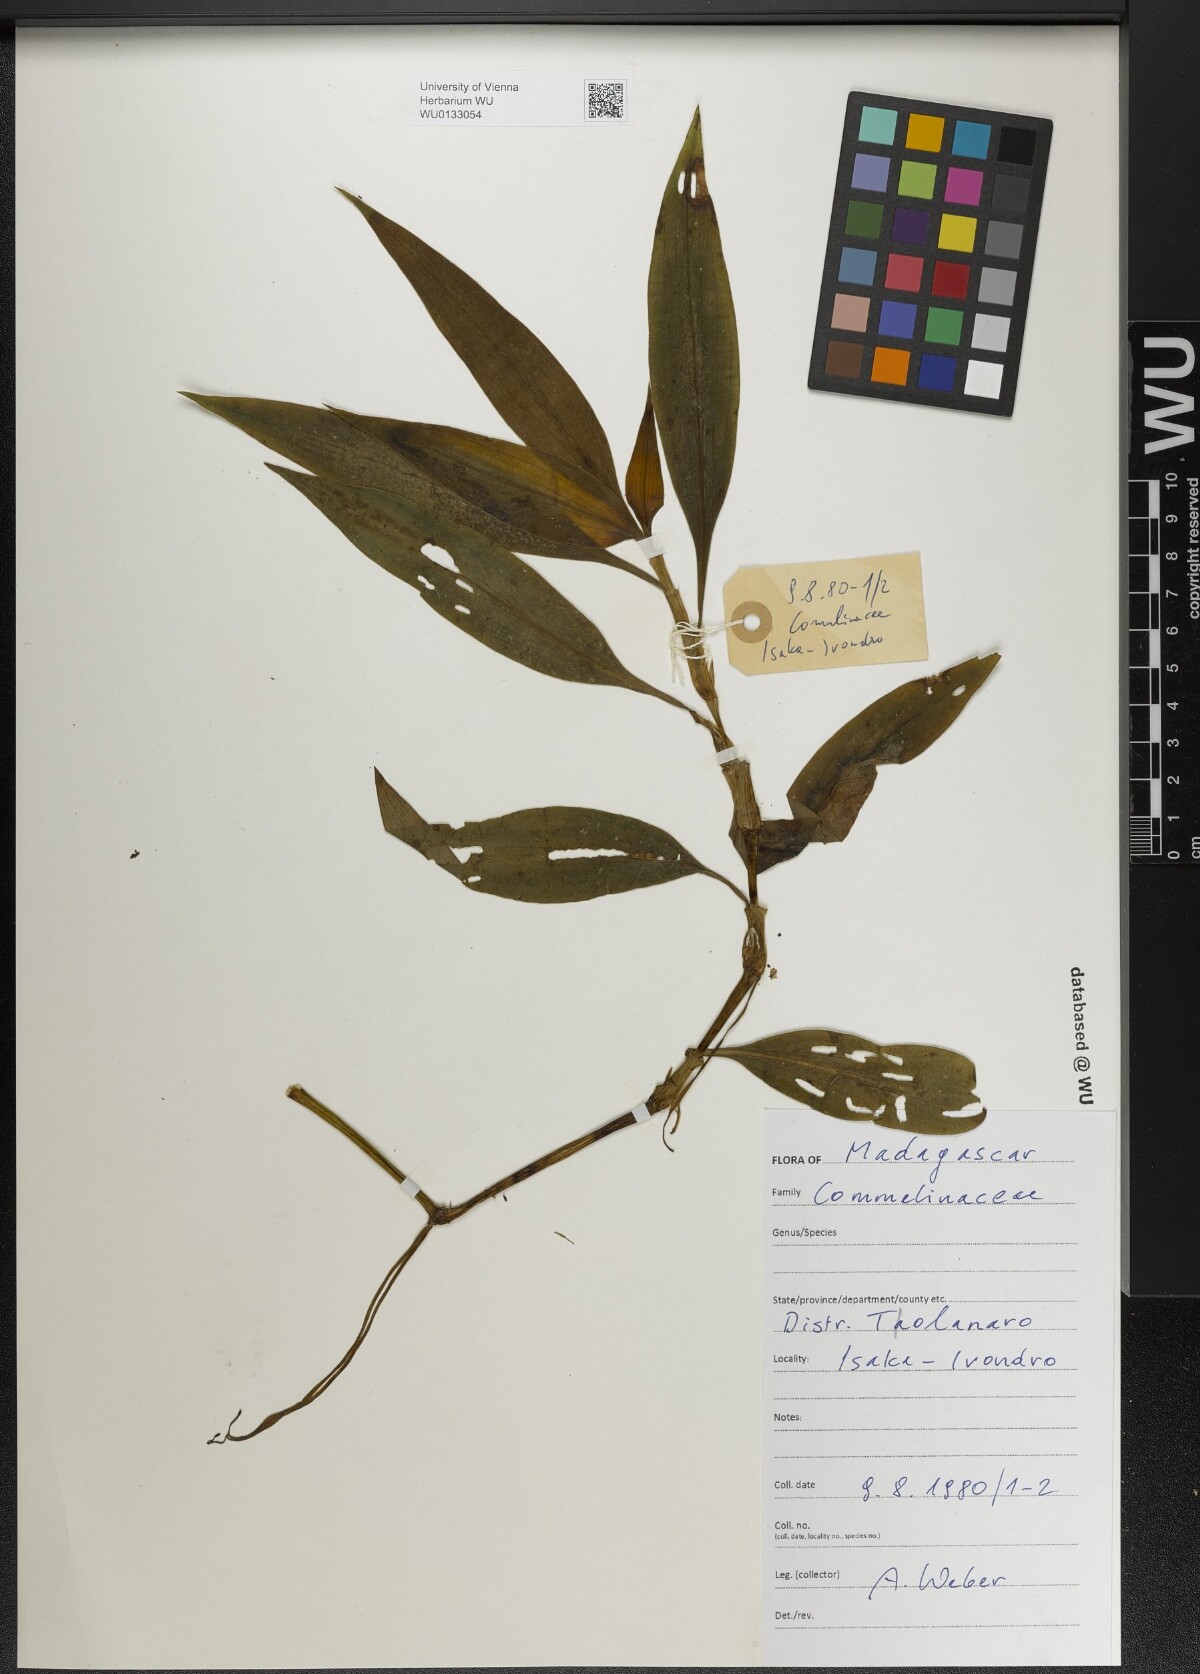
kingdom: Plantae
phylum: Tracheophyta
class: Liliopsida
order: Commelinales
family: Commelinaceae
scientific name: Commelinaceae
